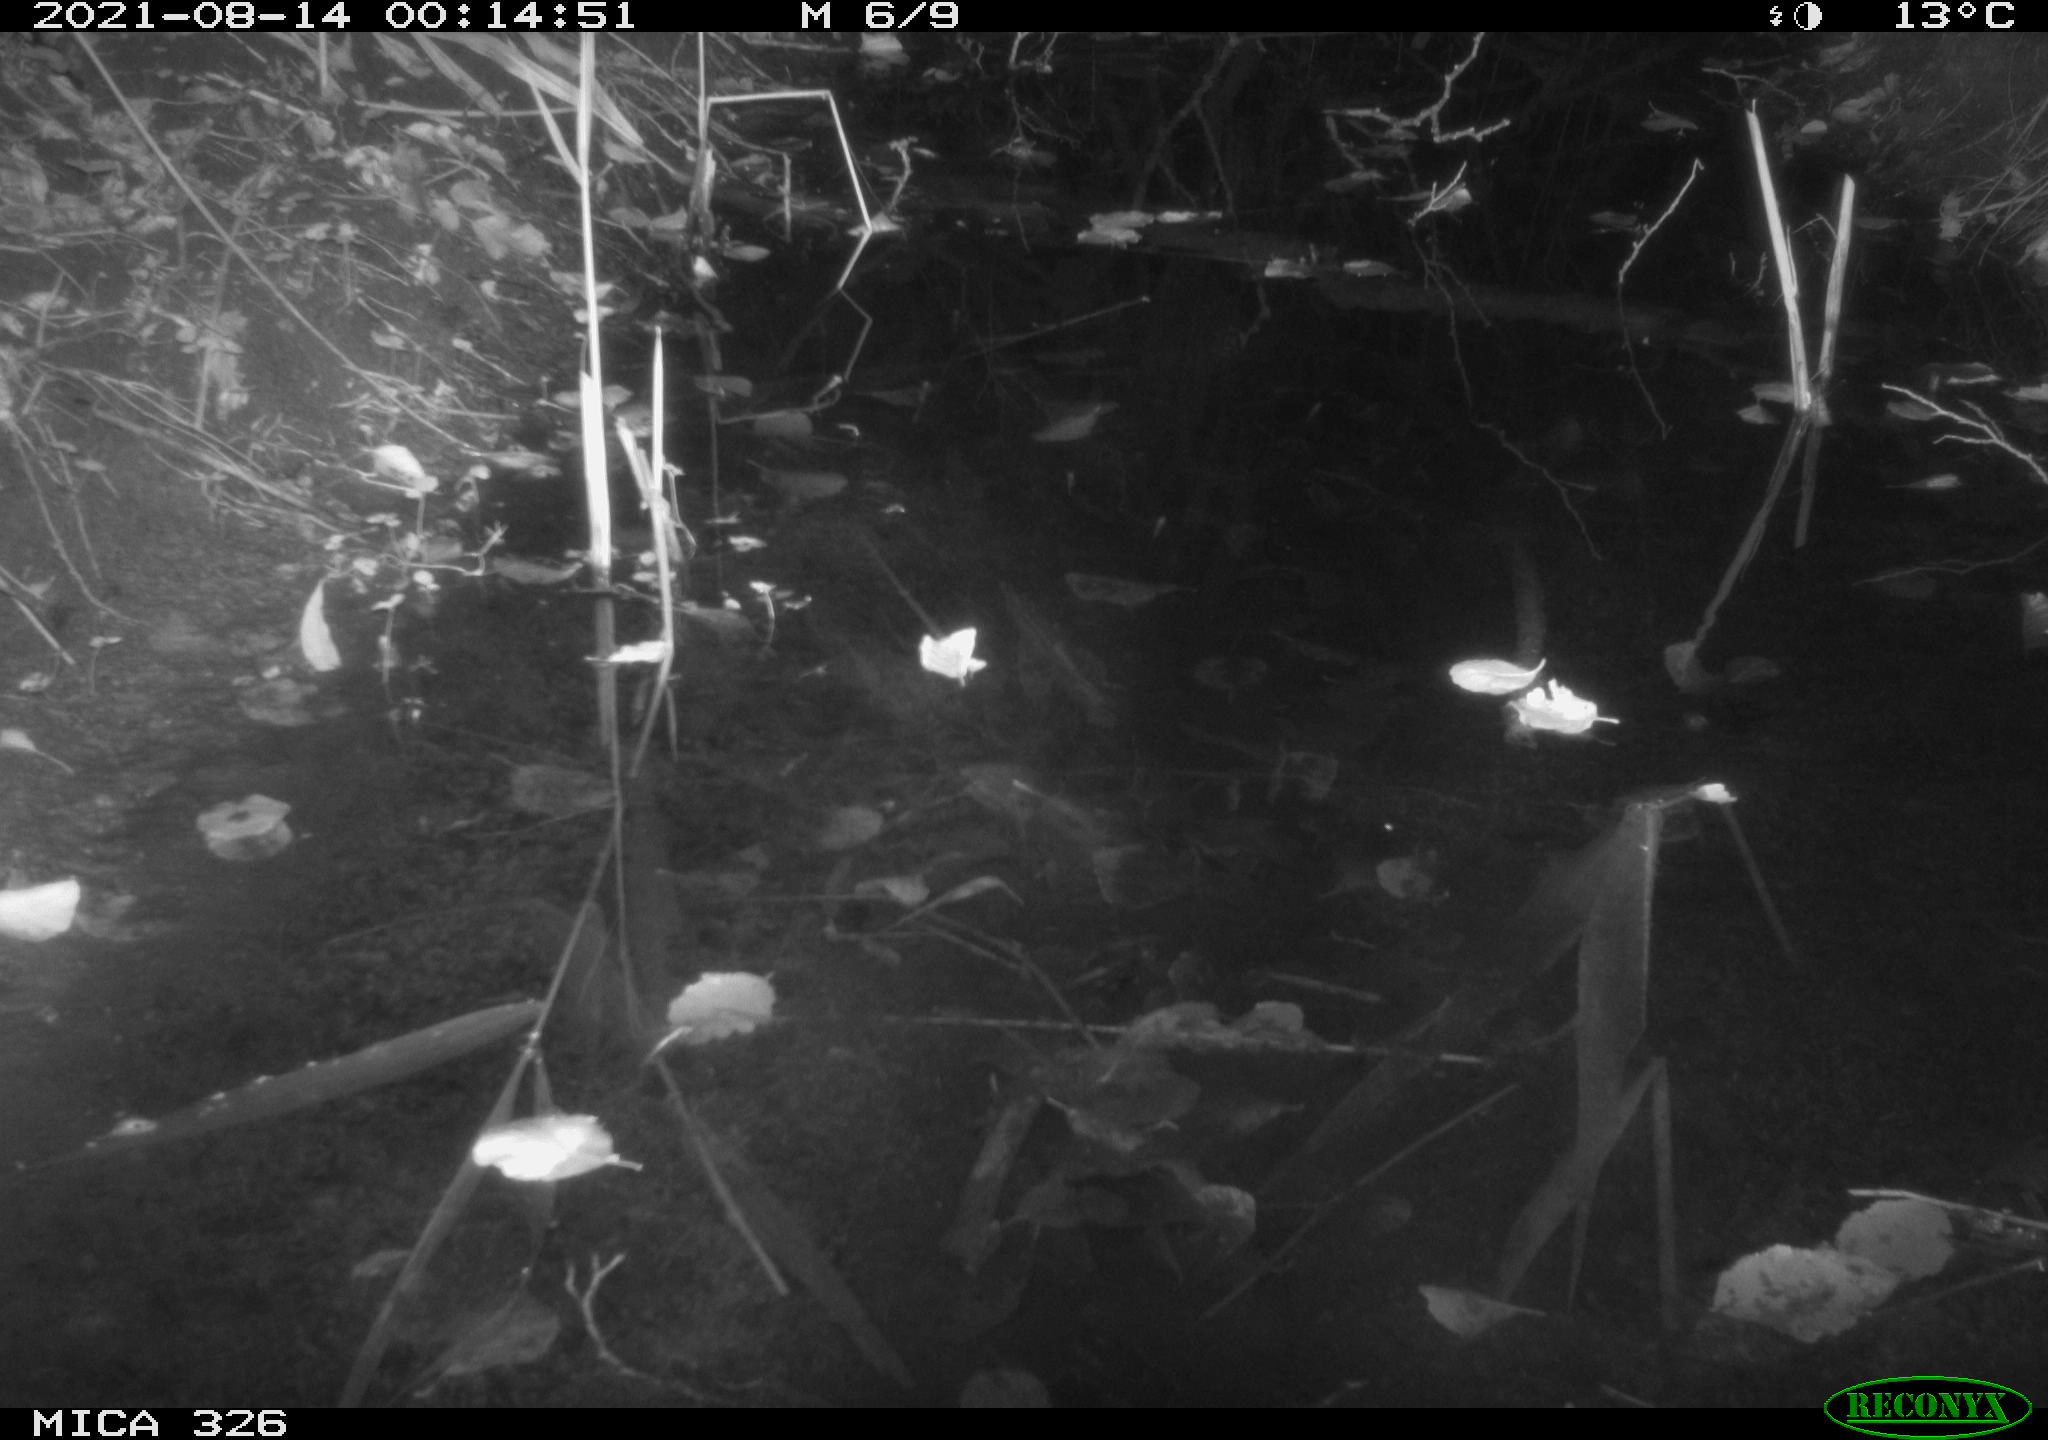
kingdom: Animalia
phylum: Chordata
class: Mammalia
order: Rodentia
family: Muridae
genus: Rattus
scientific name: Rattus norvegicus
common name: Brown rat
